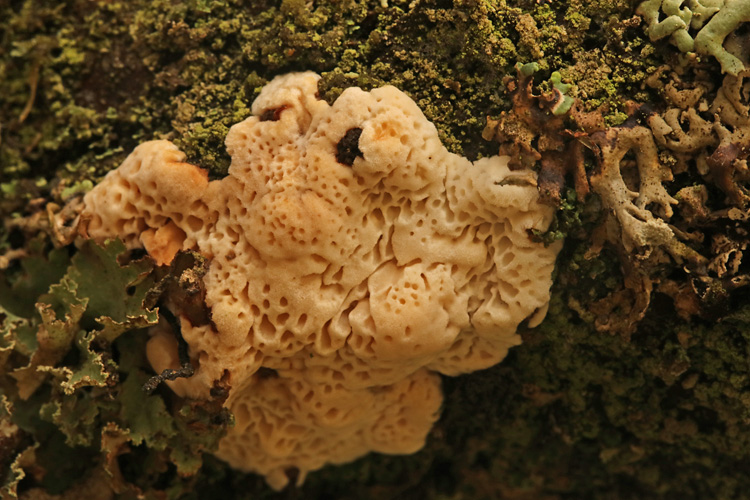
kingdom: Fungi
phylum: Basidiomycota
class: Agaricomycetes
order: Polyporales
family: Fomitopsidaceae
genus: Fomitopsis
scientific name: Fomitopsis
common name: fyrre-skiveporesvamp
